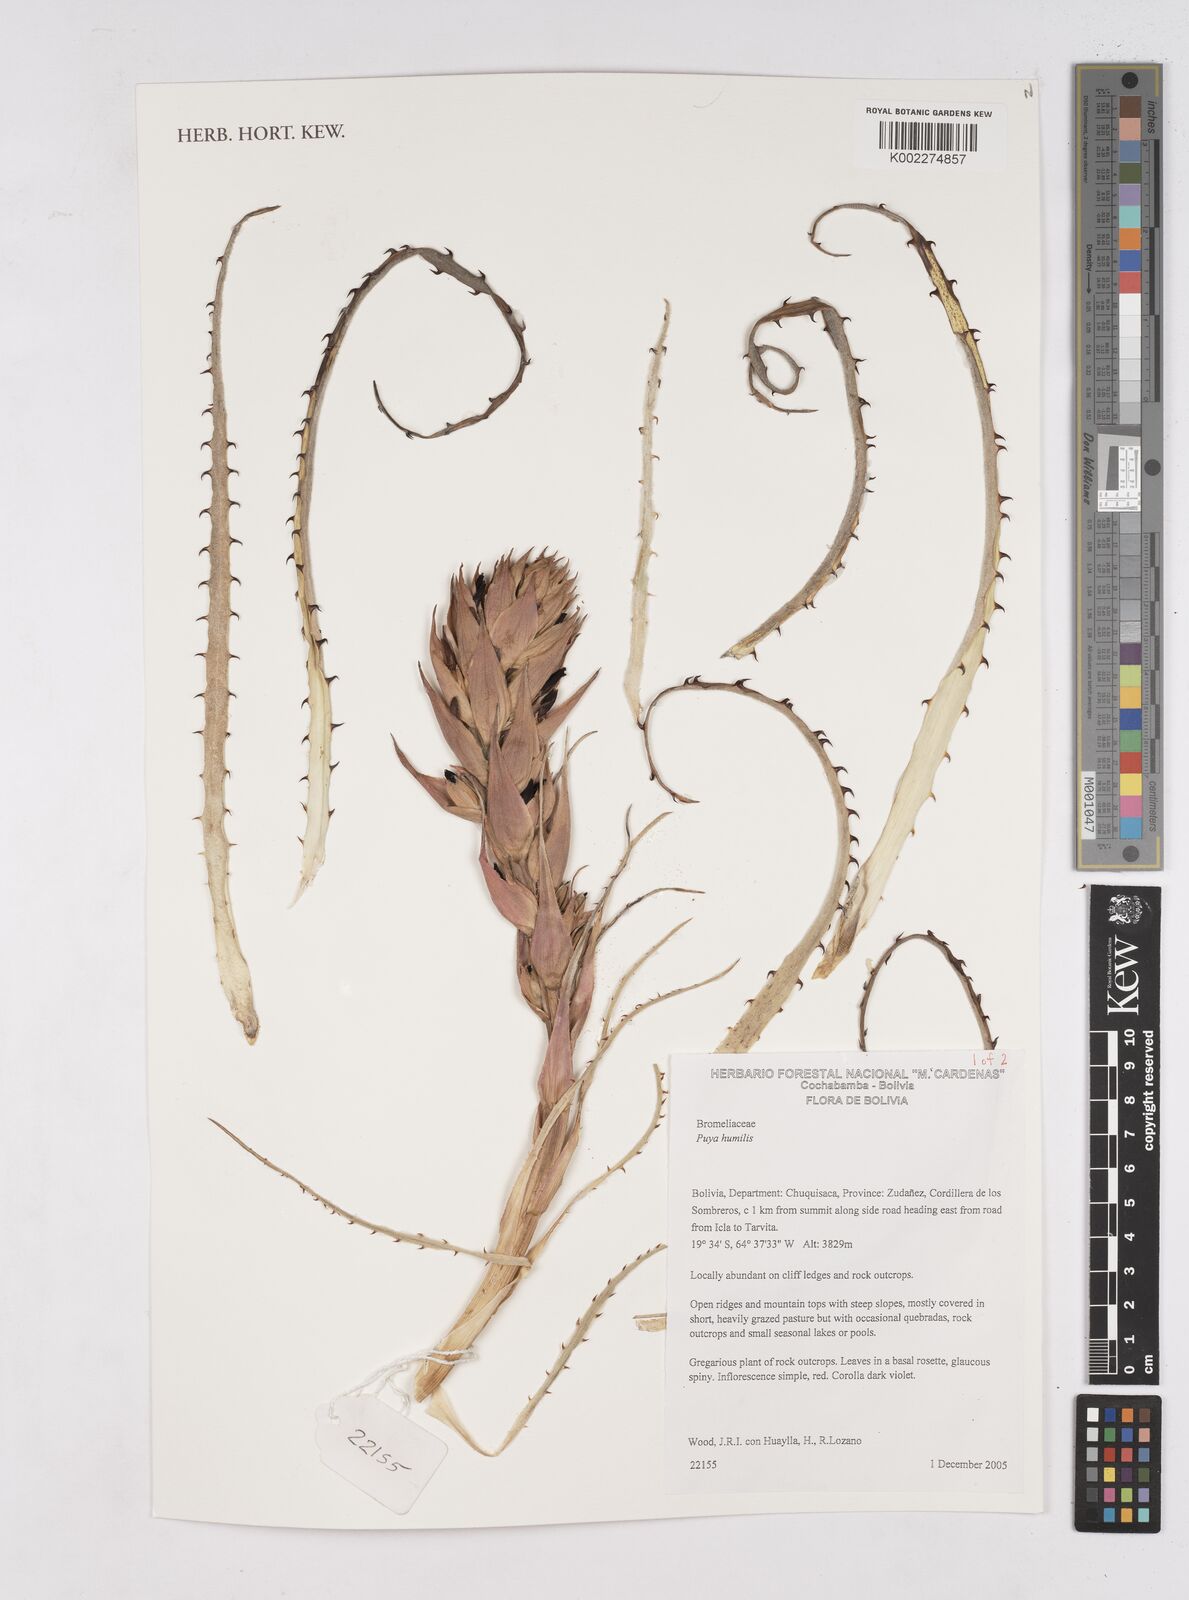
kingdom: Plantae
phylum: Tracheophyta
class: Liliopsida
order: Poales
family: Bromeliaceae
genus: Puya
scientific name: Puya humilis
